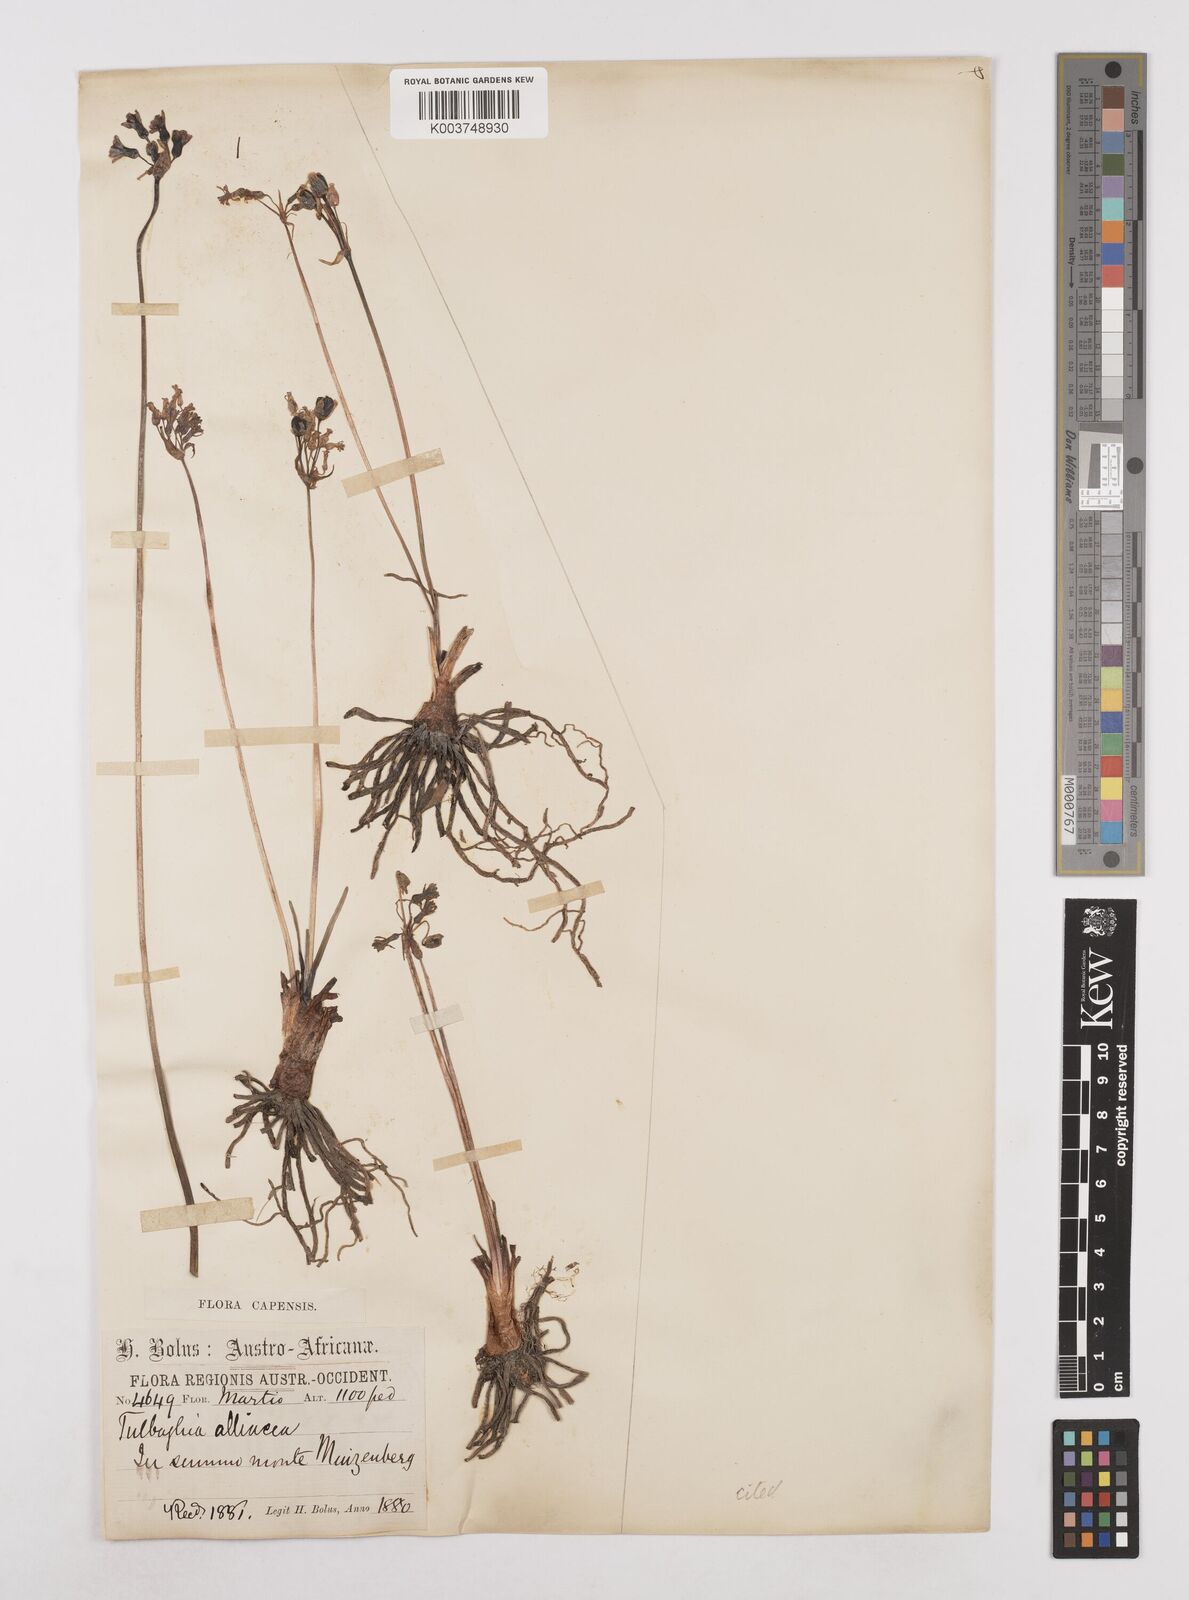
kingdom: Plantae
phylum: Tracheophyta
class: Liliopsida
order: Asparagales
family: Amaryllidaceae
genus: Tulbaghia
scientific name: Tulbaghia alliacea
